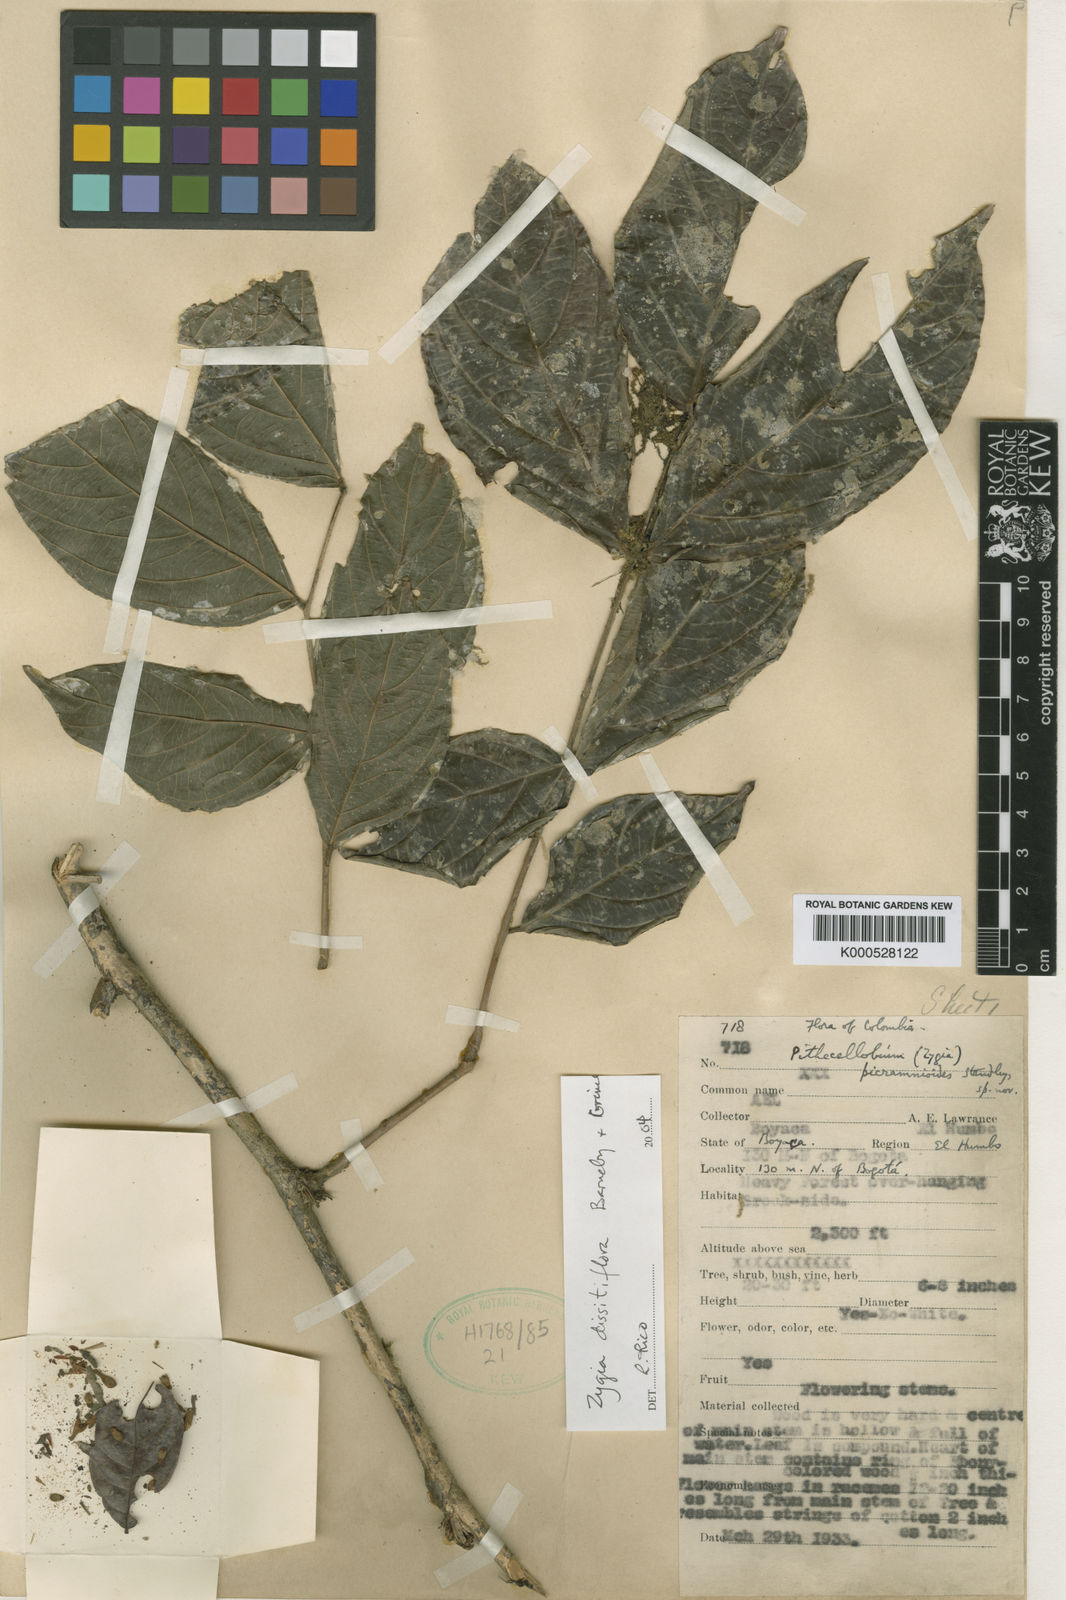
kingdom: Plantae
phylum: Tracheophyta
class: Magnoliopsida
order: Fabales
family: Fabaceae
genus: Zygia
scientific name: Zygia picramnioides
